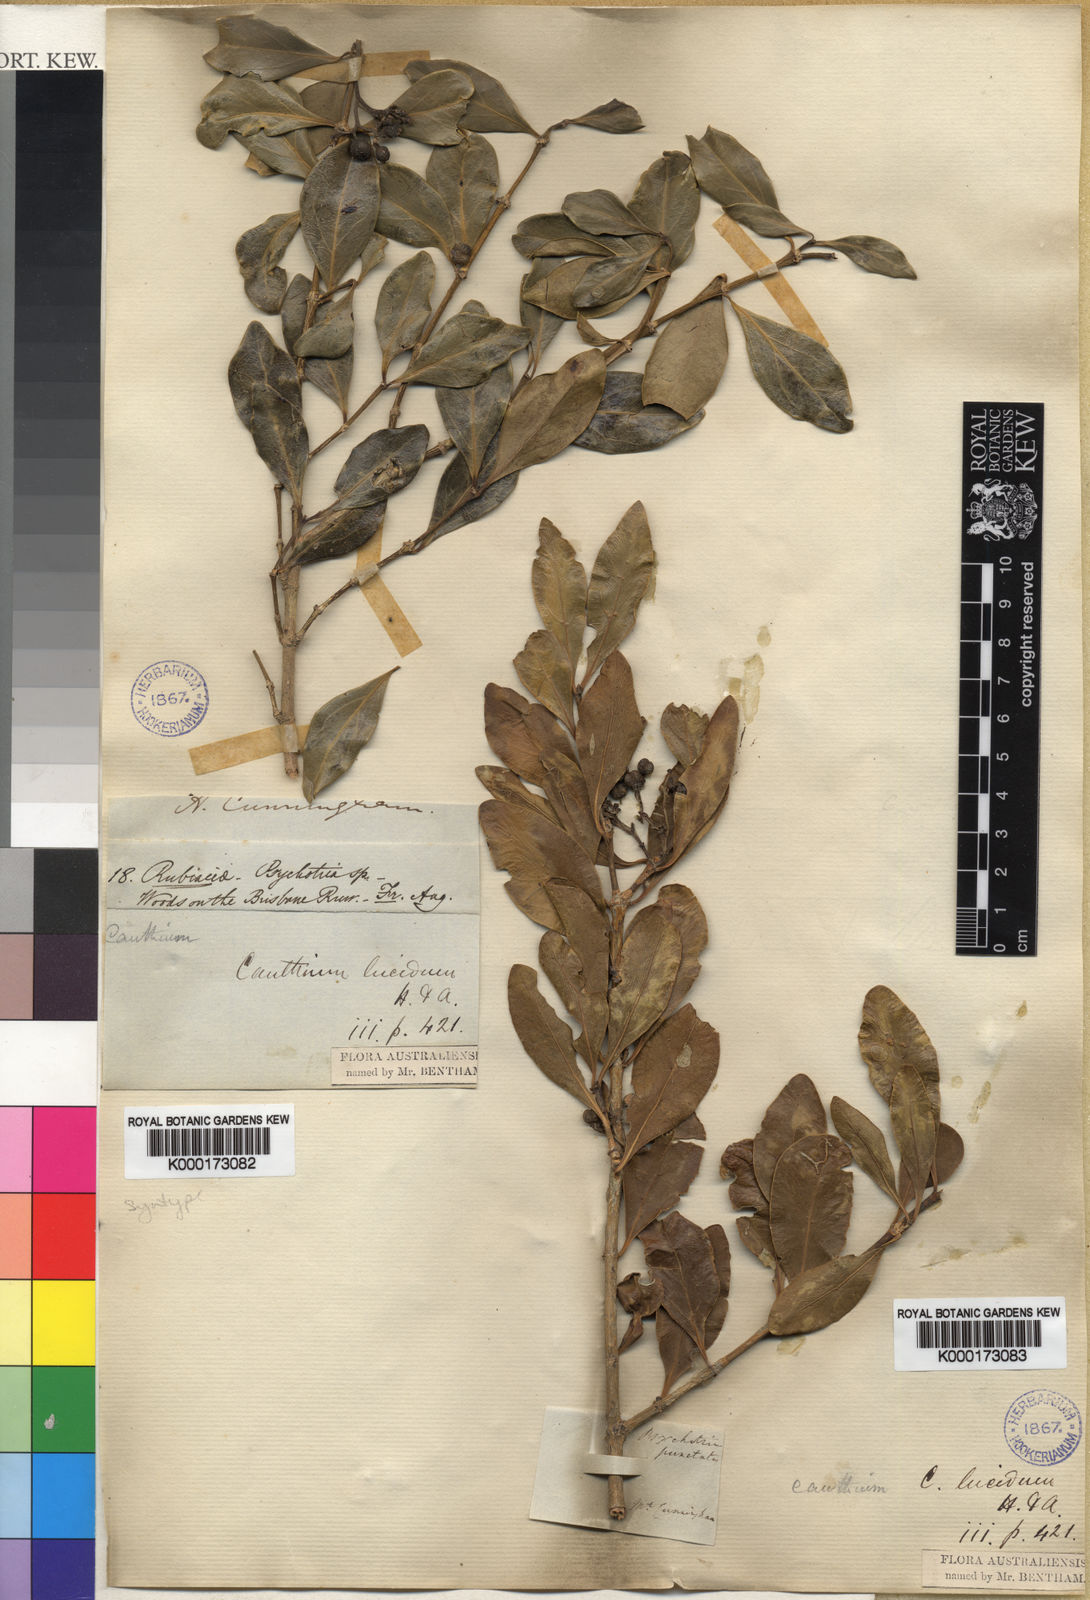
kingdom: Plantae
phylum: Tracheophyta
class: Magnoliopsida
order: Gentianales
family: Rubiaceae
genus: Psydrax
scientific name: Psydrax odoratus
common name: Alahe'e
